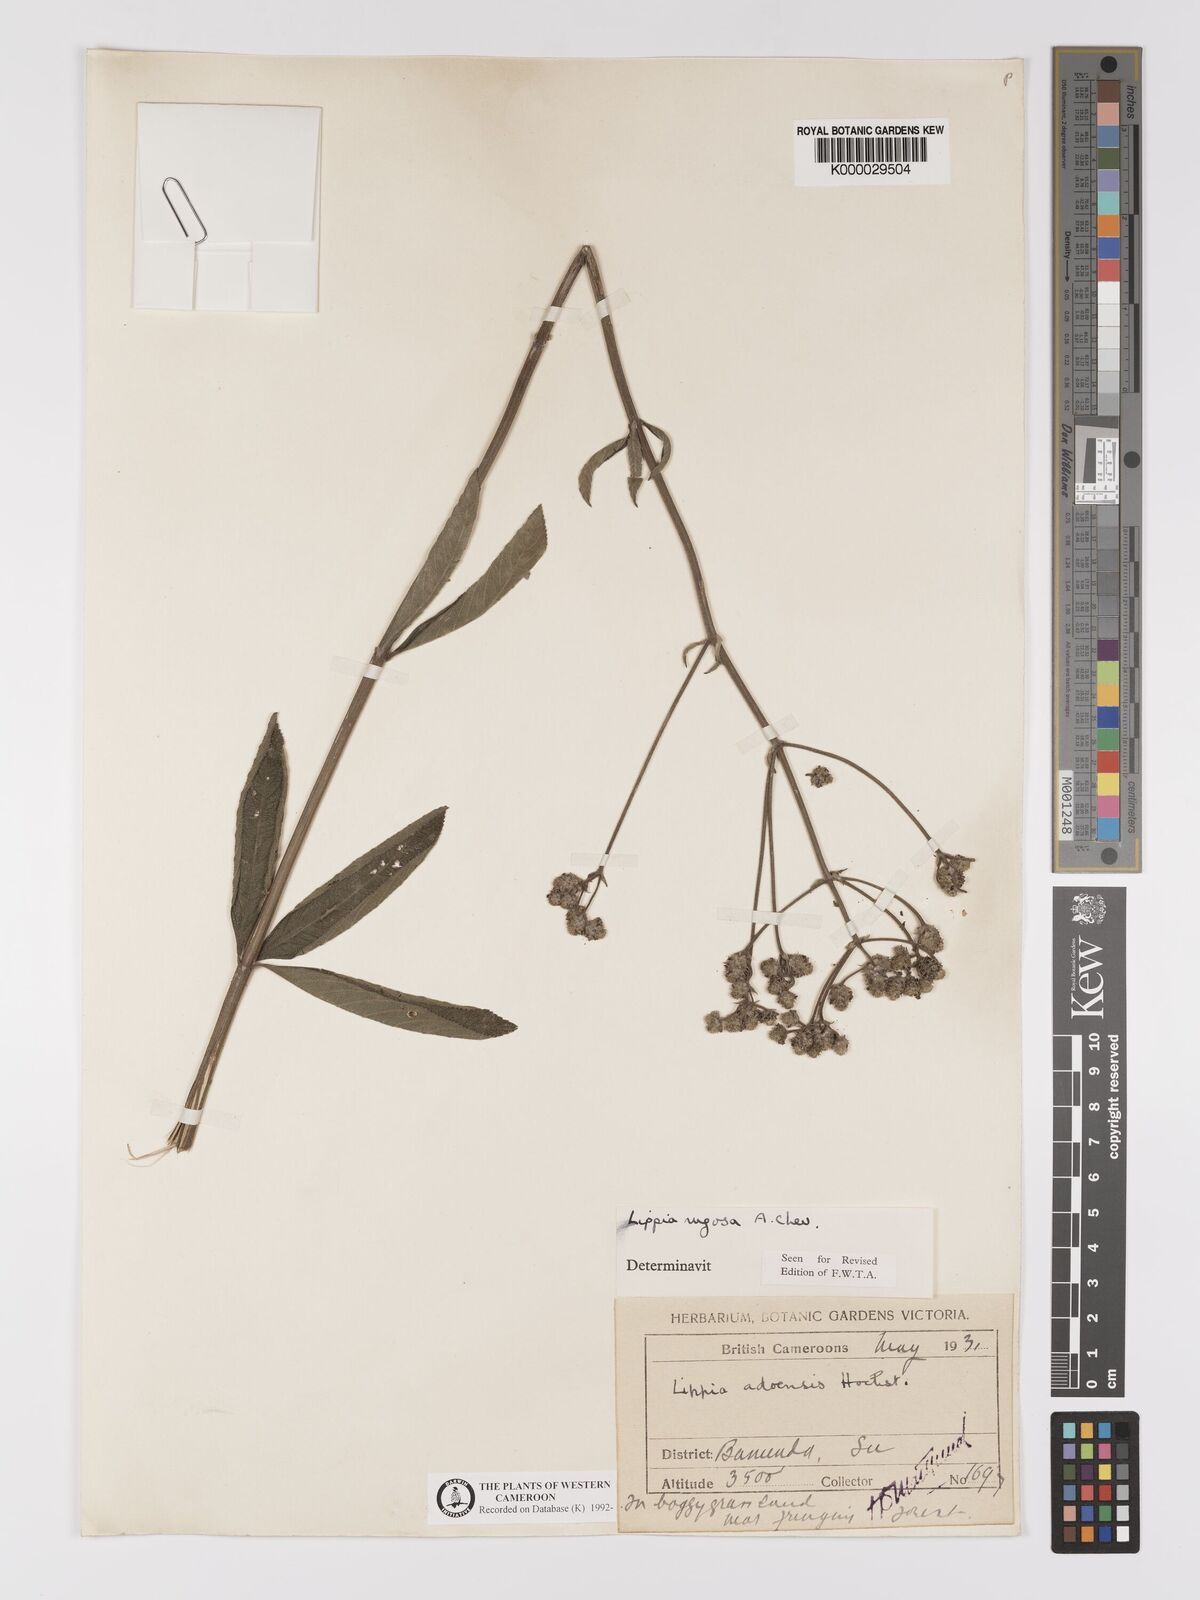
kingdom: Plantae
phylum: Tracheophyta
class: Magnoliopsida
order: Lamiales
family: Verbenaceae
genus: Lippia
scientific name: Lippia rugosa
